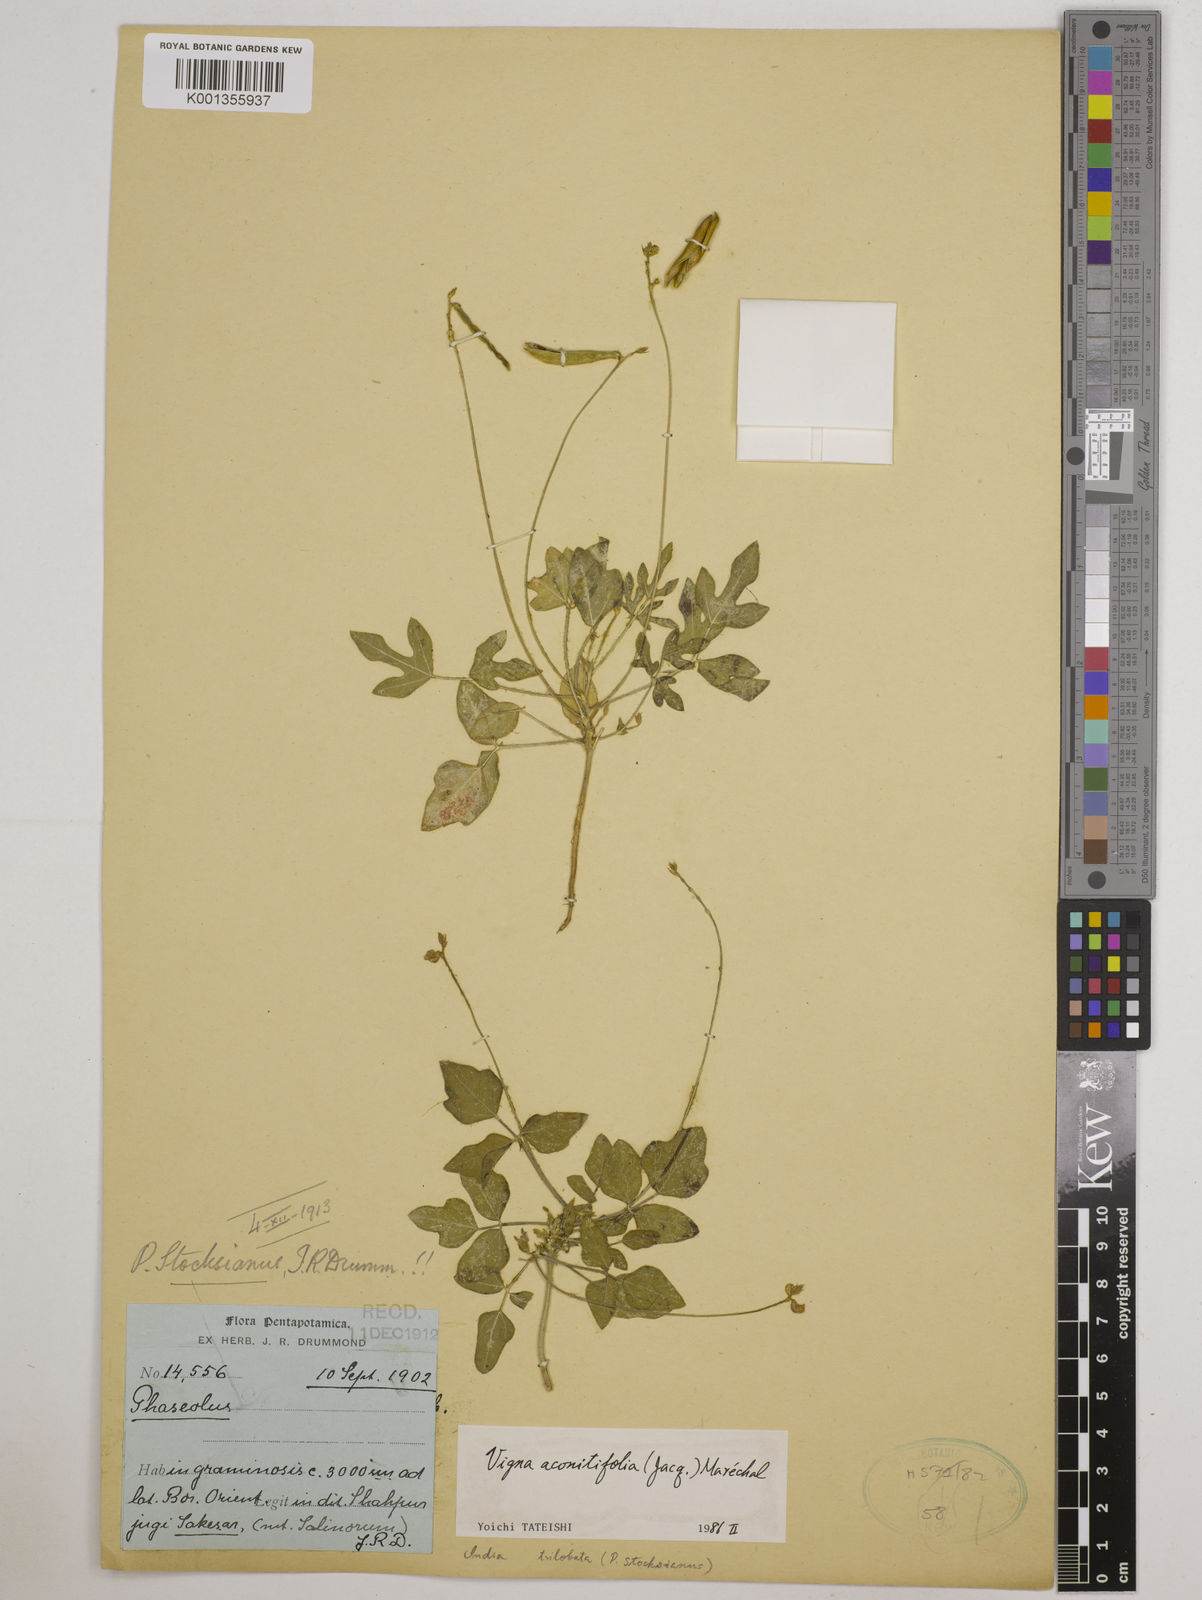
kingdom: Plantae
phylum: Tracheophyta
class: Magnoliopsida
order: Fabales
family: Fabaceae
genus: Vigna
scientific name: Vigna aconitifolia
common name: Dew bean
